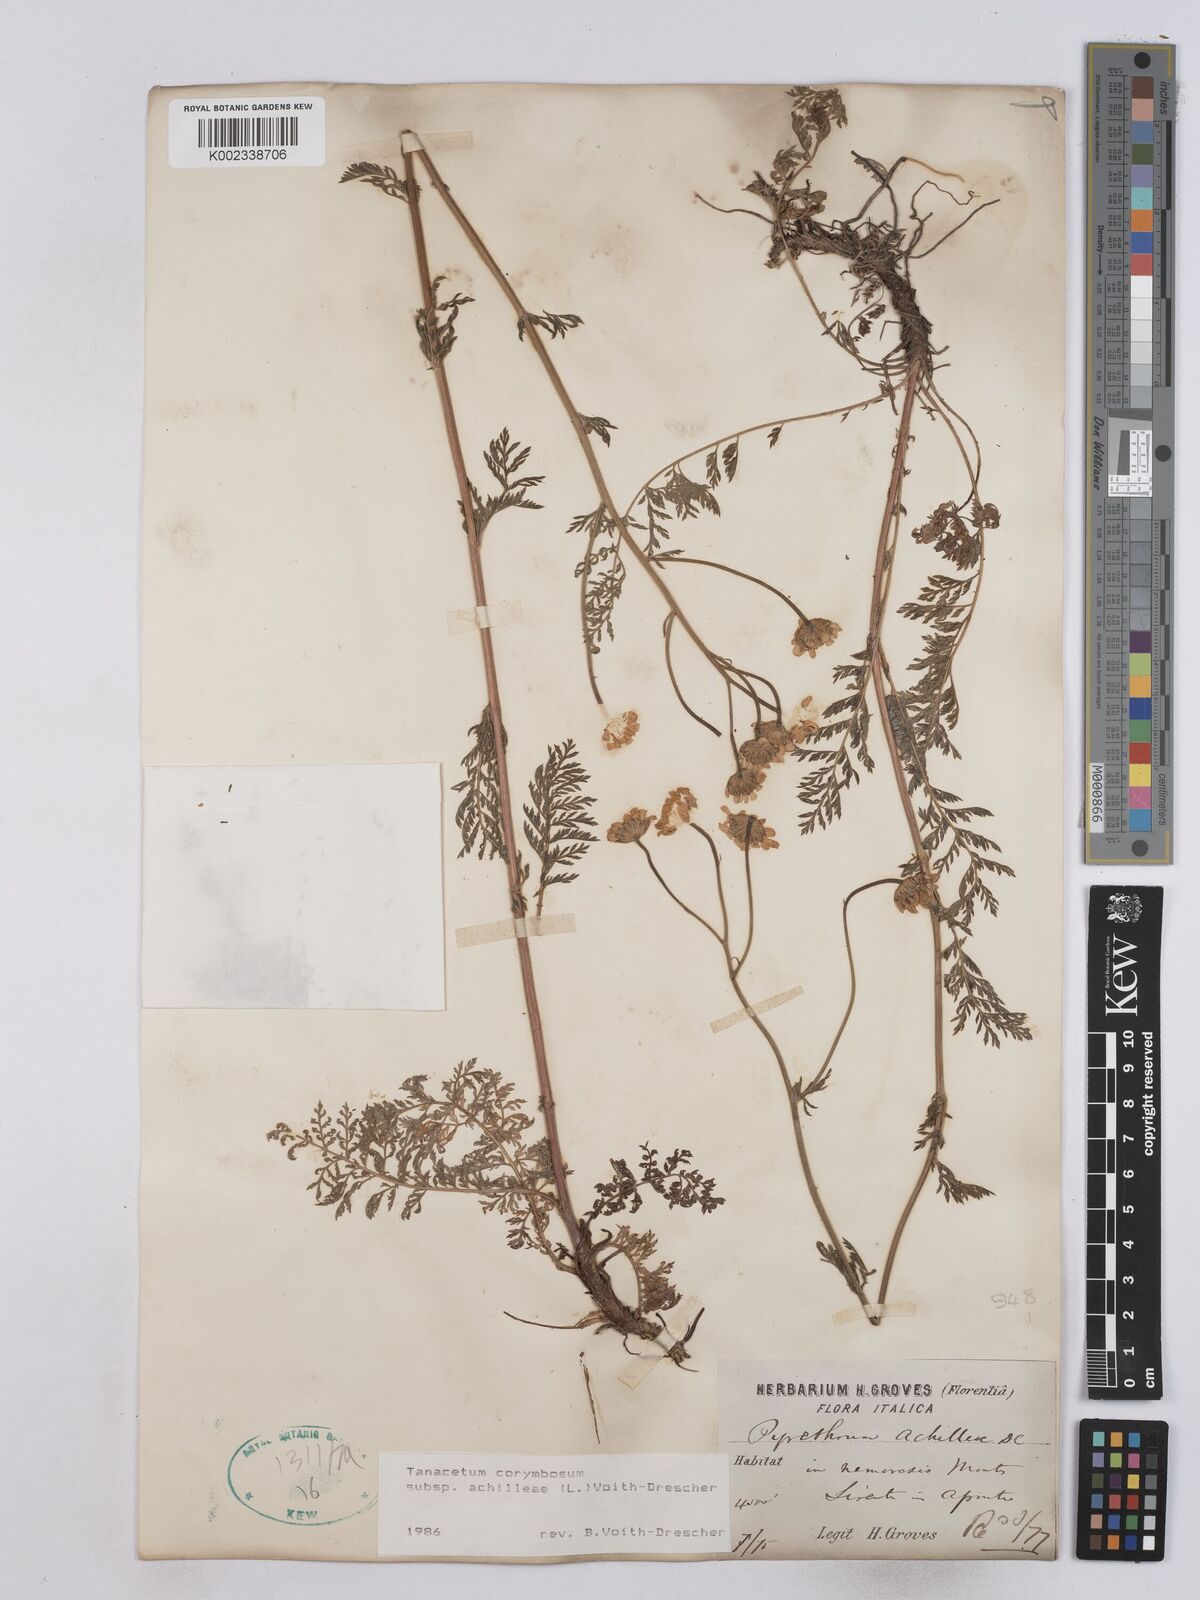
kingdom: Plantae
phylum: Tracheophyta
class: Magnoliopsida
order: Asterales
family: Asteraceae
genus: Tanacetum
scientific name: Tanacetum corymbosum
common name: Scentless feverfew
